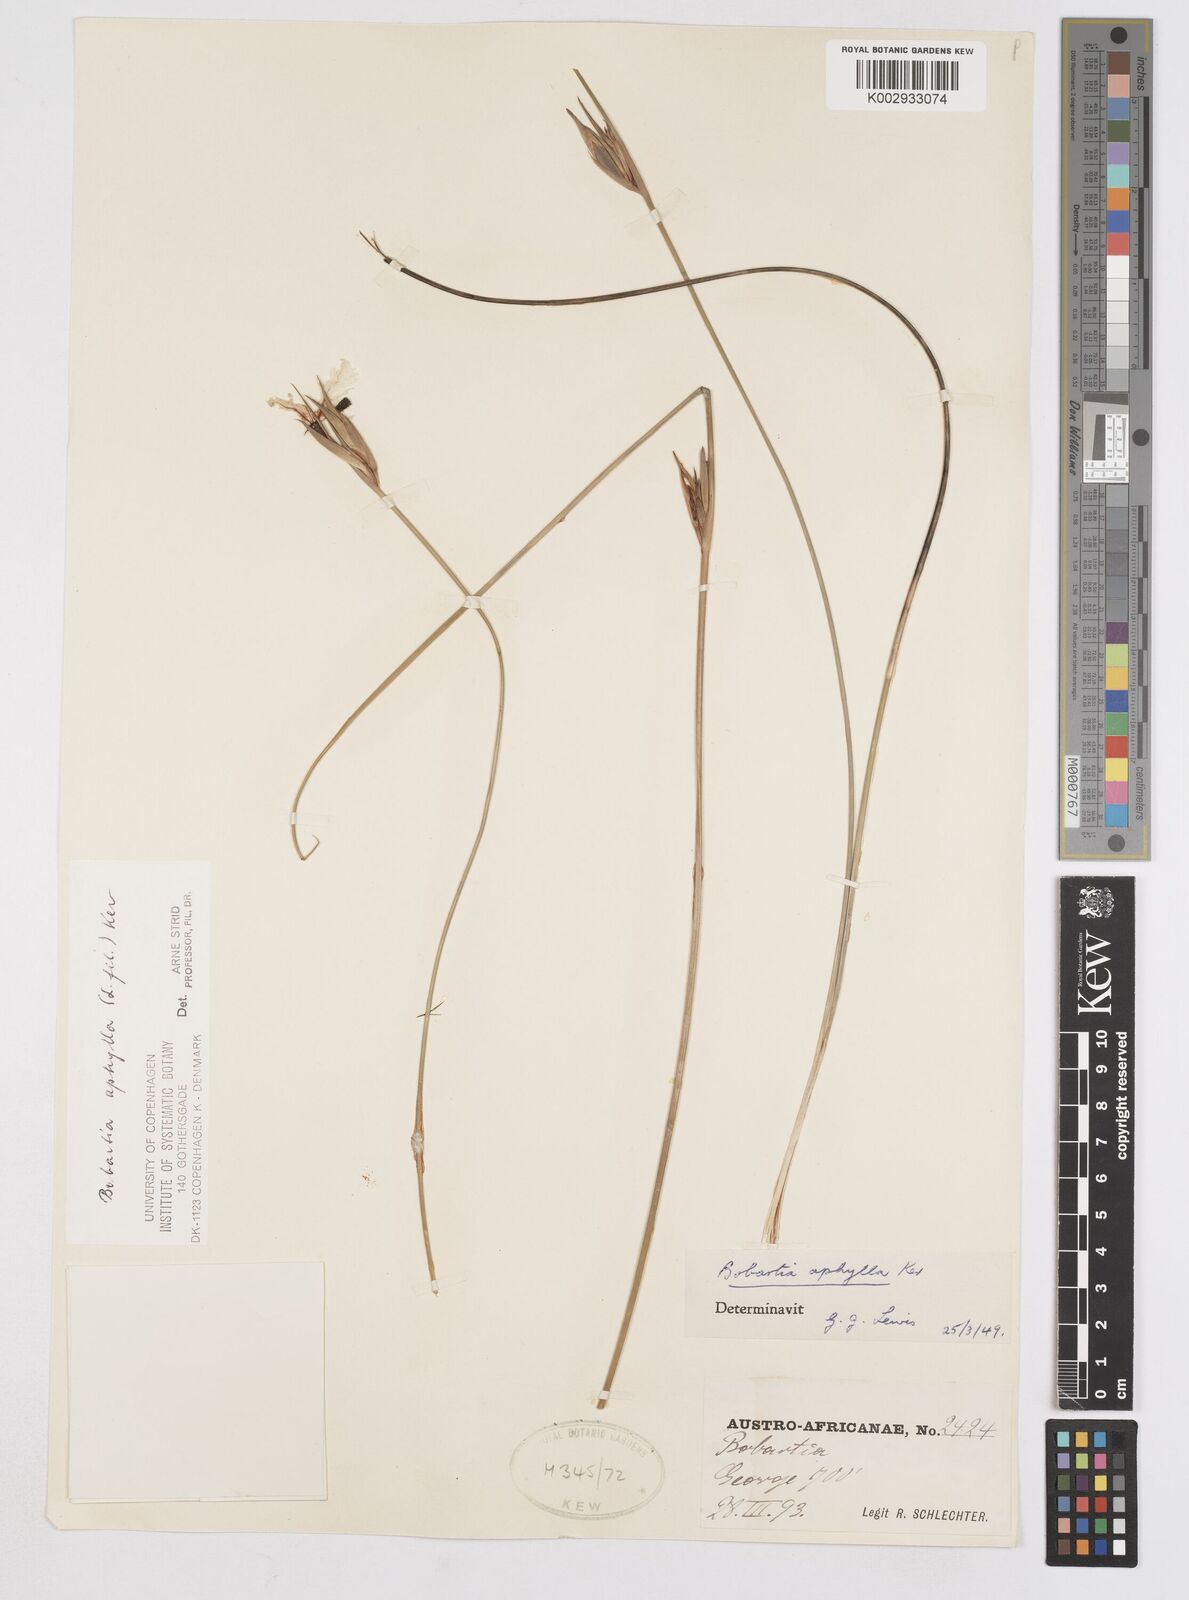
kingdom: Plantae
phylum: Tracheophyta
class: Liliopsida
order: Asparagales
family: Iridaceae
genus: Bobartia
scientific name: Bobartia aphylla
